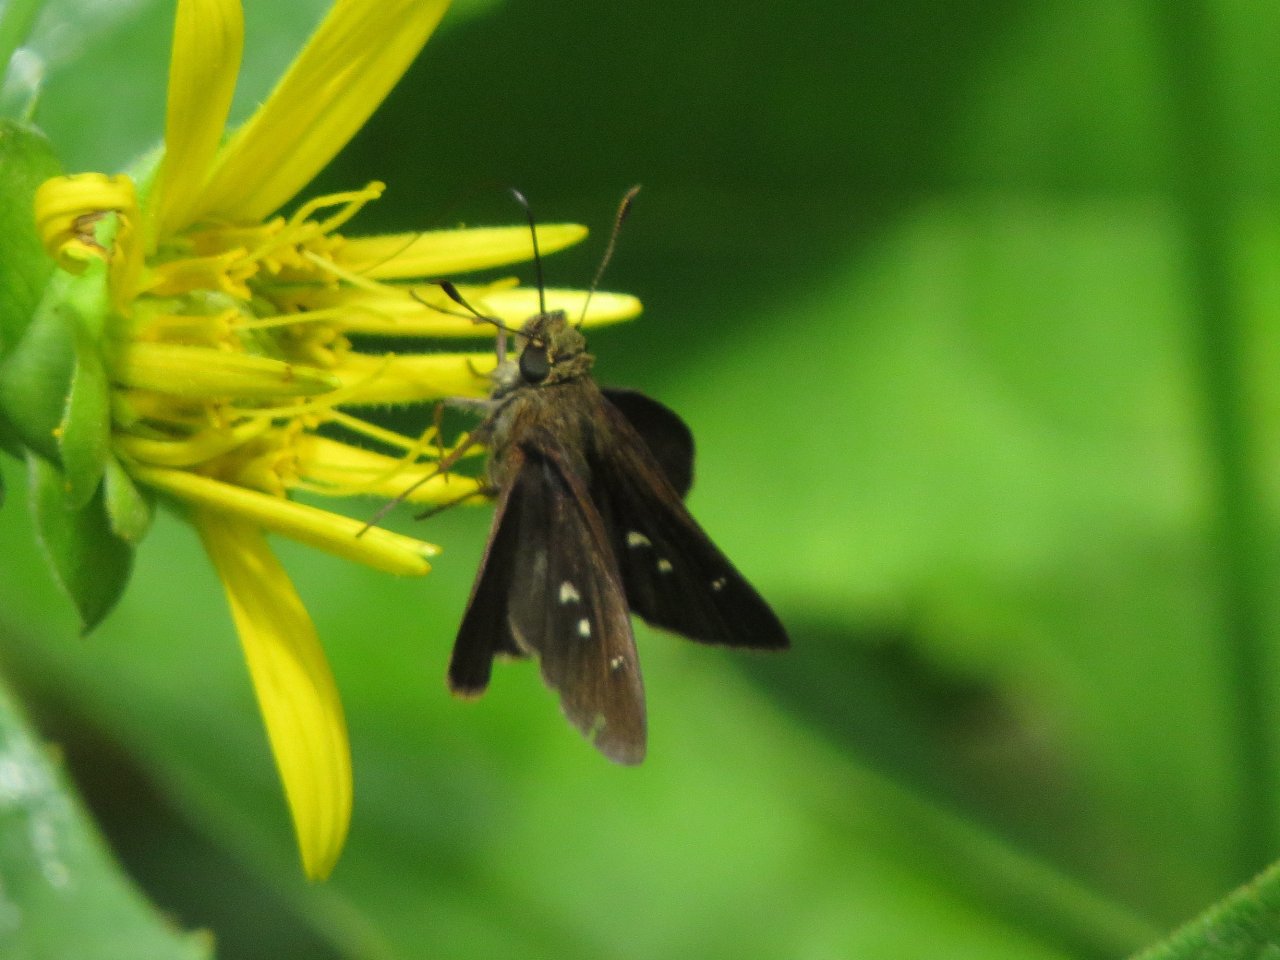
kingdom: Animalia
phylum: Arthropoda
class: Insecta
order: Lepidoptera
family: Hesperiidae
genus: Oligoria
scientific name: Oligoria maculata
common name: Twin-spot Skipper
